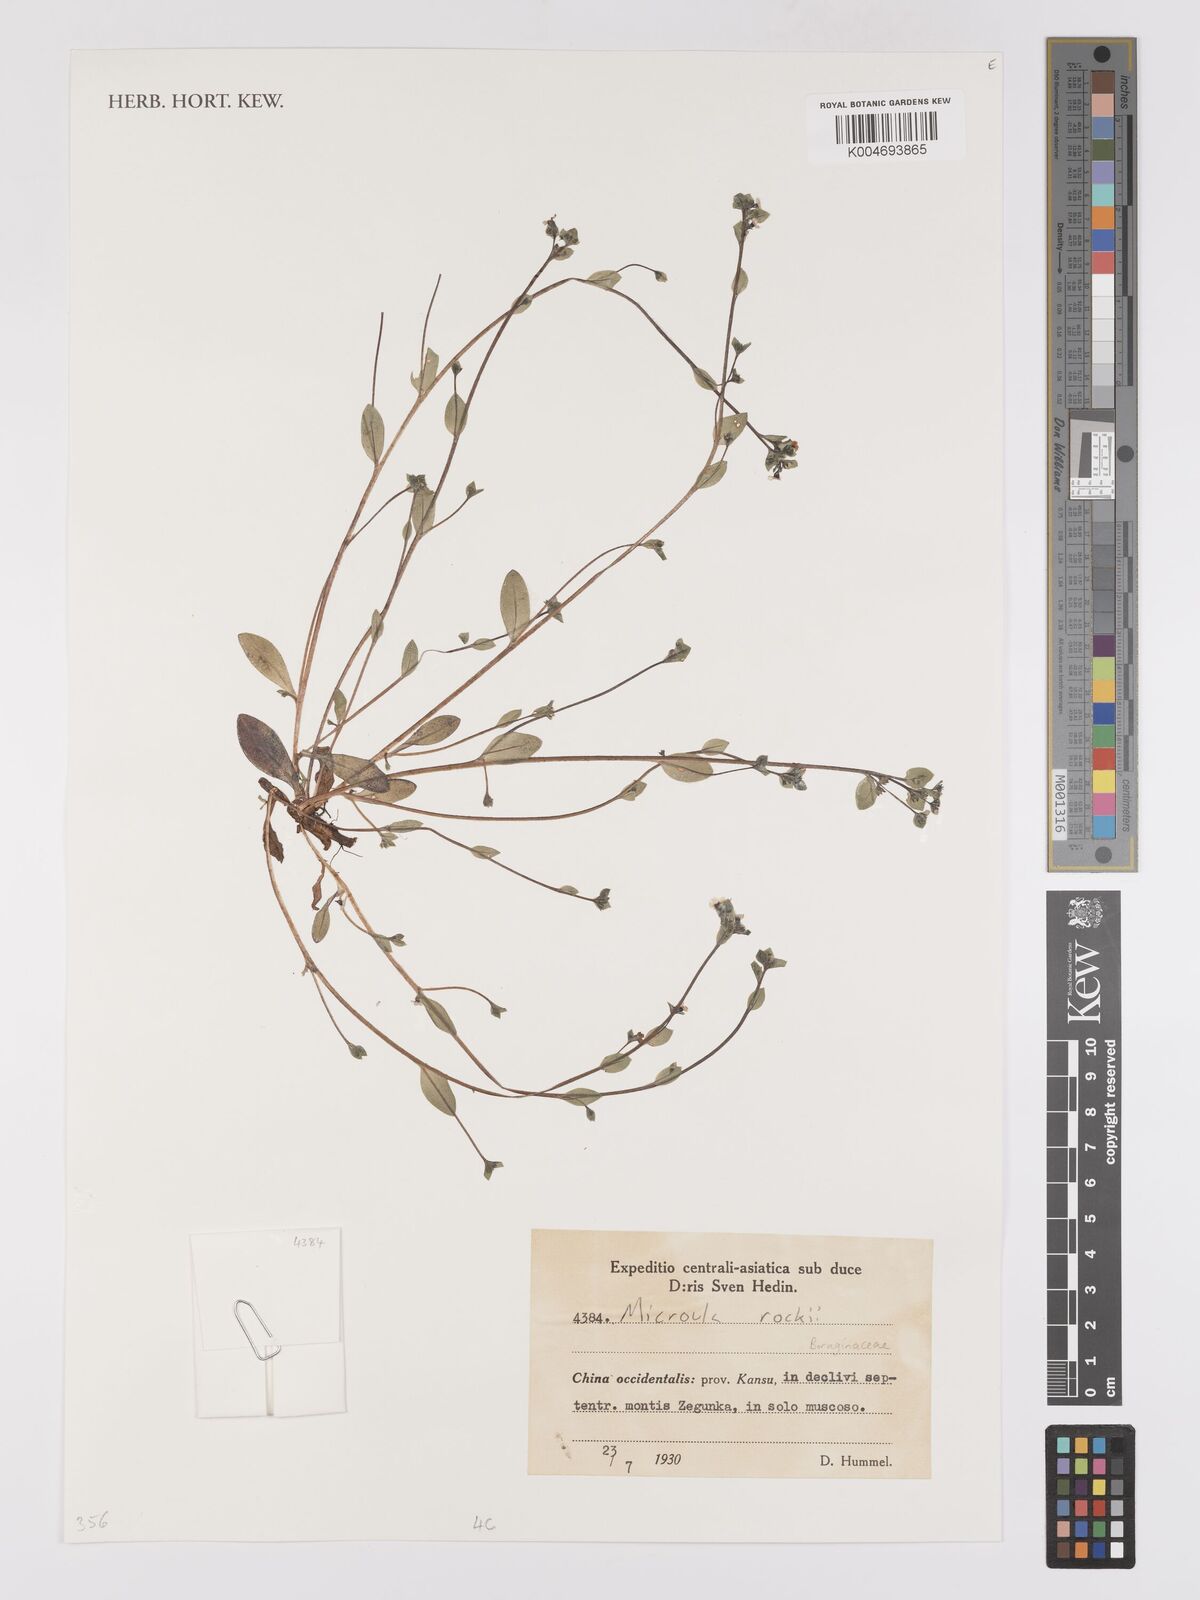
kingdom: Plantae
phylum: Tracheophyta
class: Magnoliopsida
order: Boraginales
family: Boraginaceae
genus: Microula
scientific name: Microula rockii
